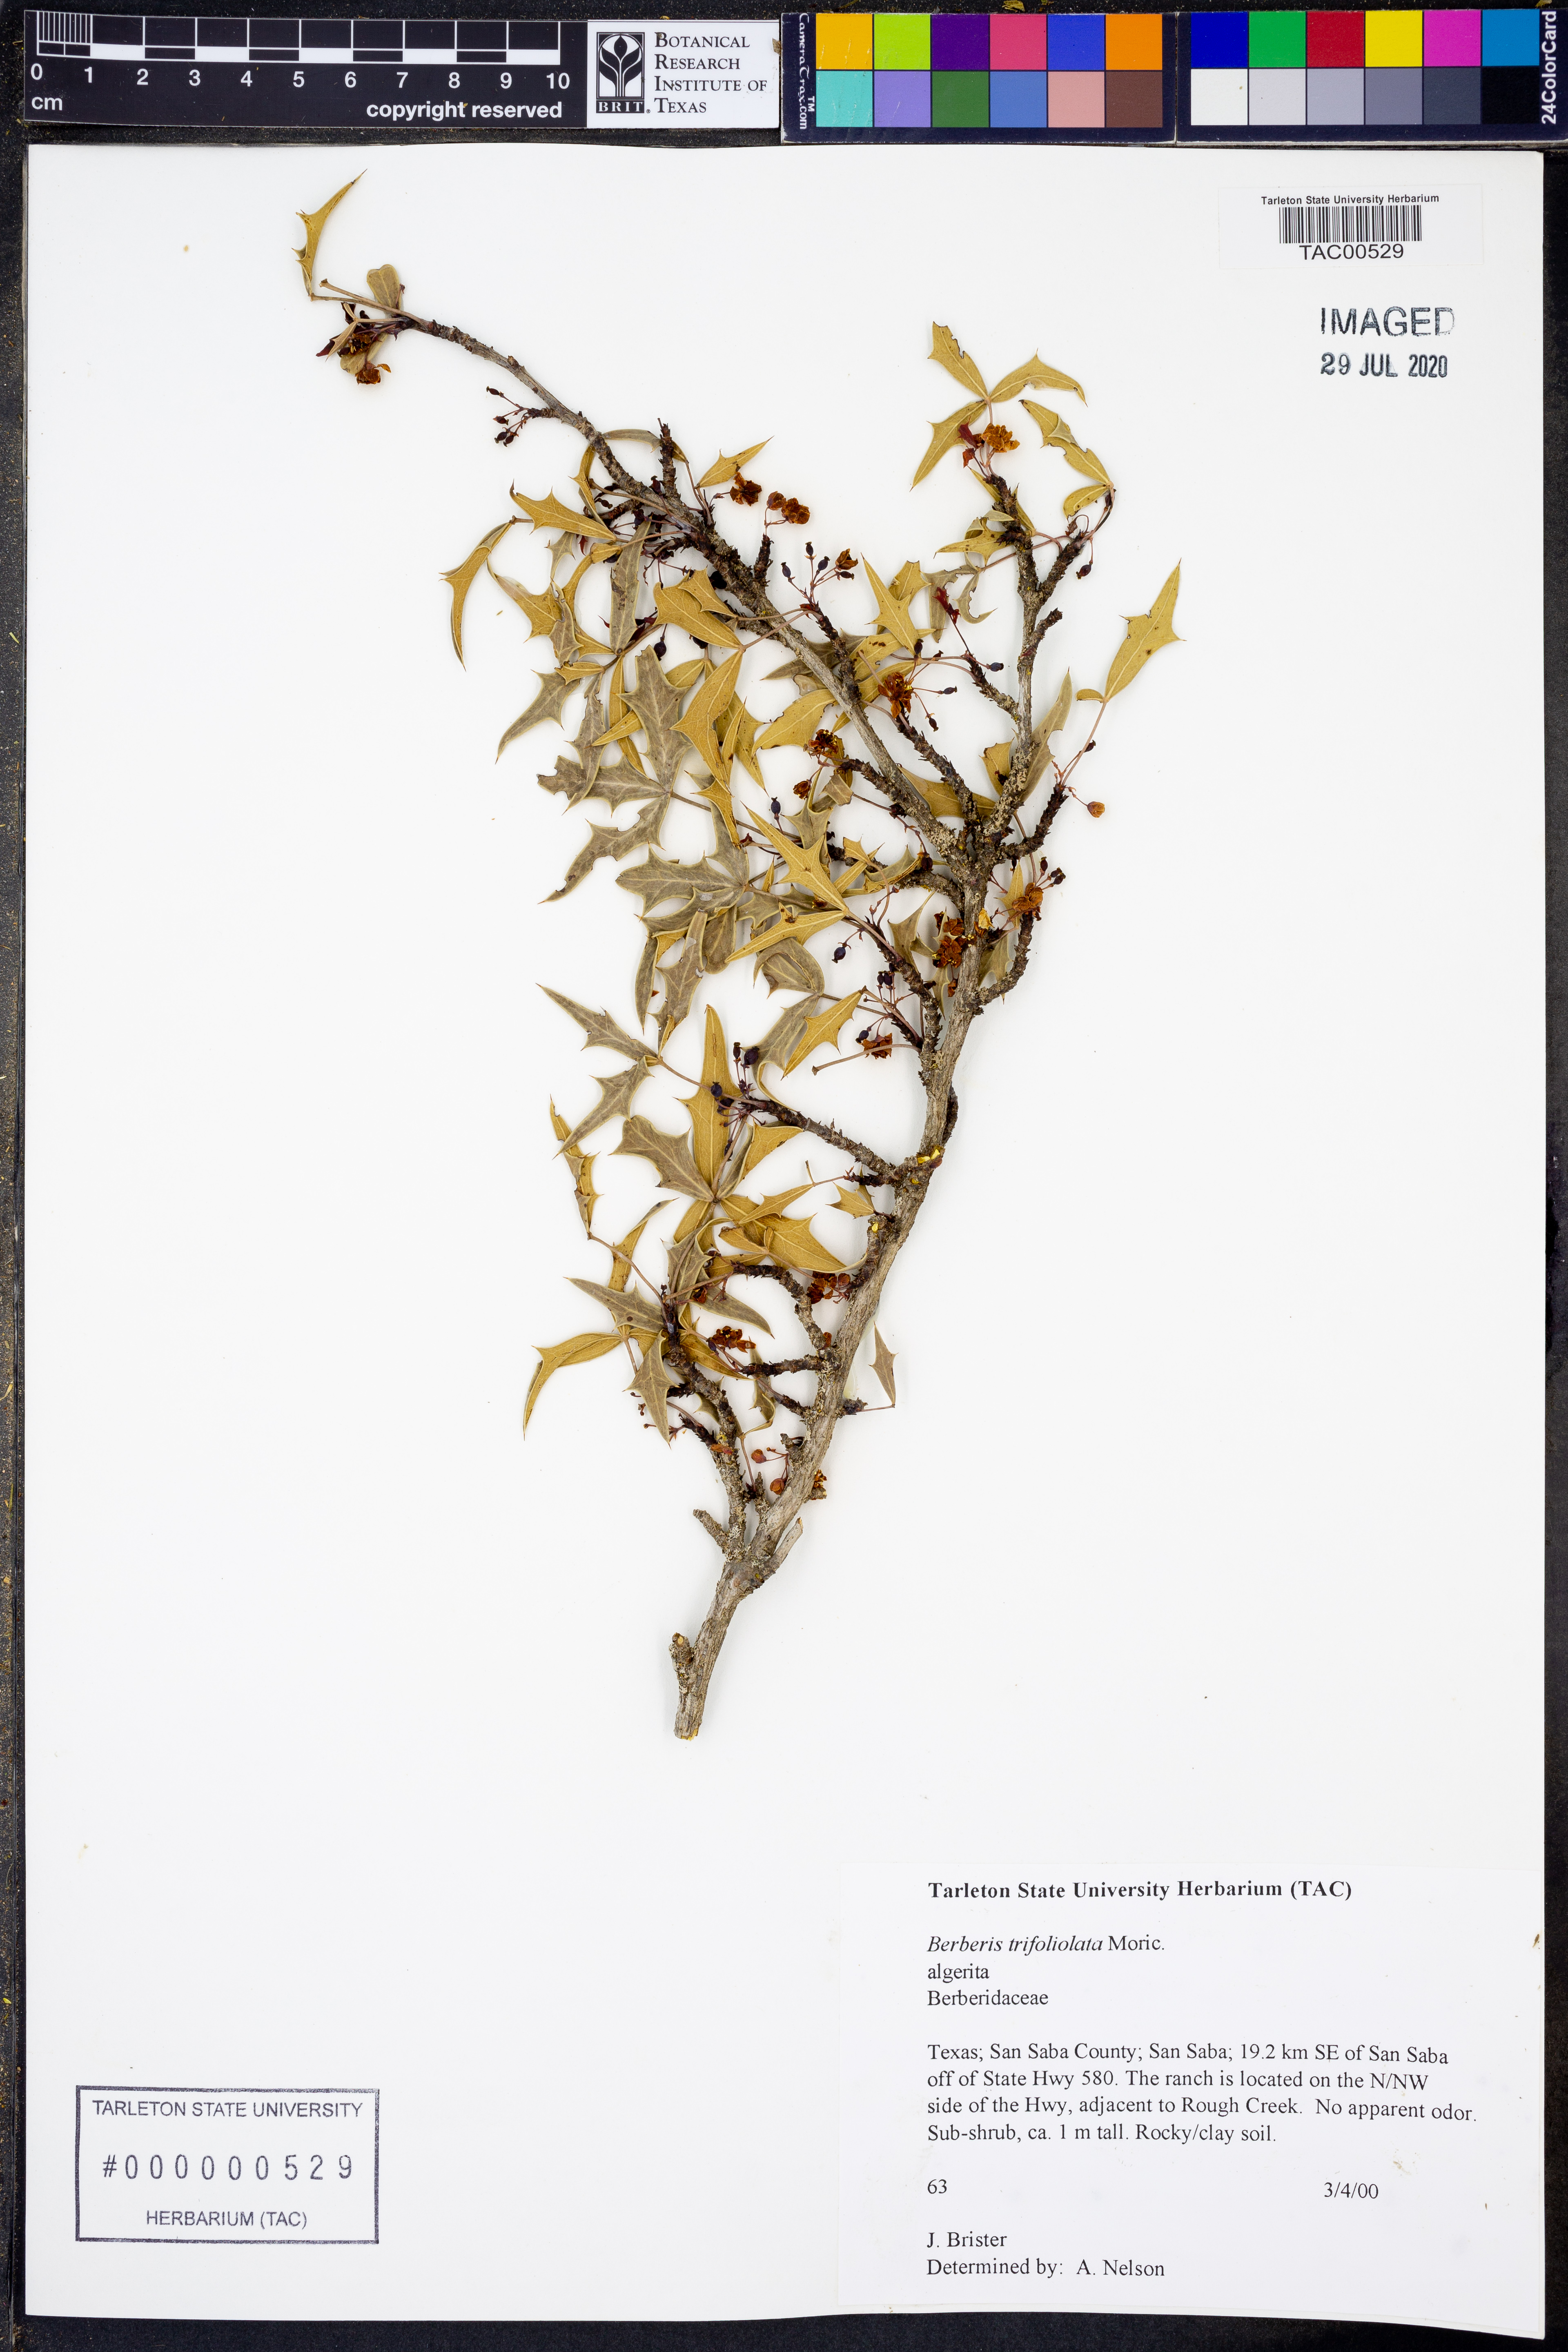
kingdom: Plantae
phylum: Tracheophyta
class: Magnoliopsida
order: Ranunculales
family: Berberidaceae
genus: Alloberberis
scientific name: Alloberberis trifoliolata
